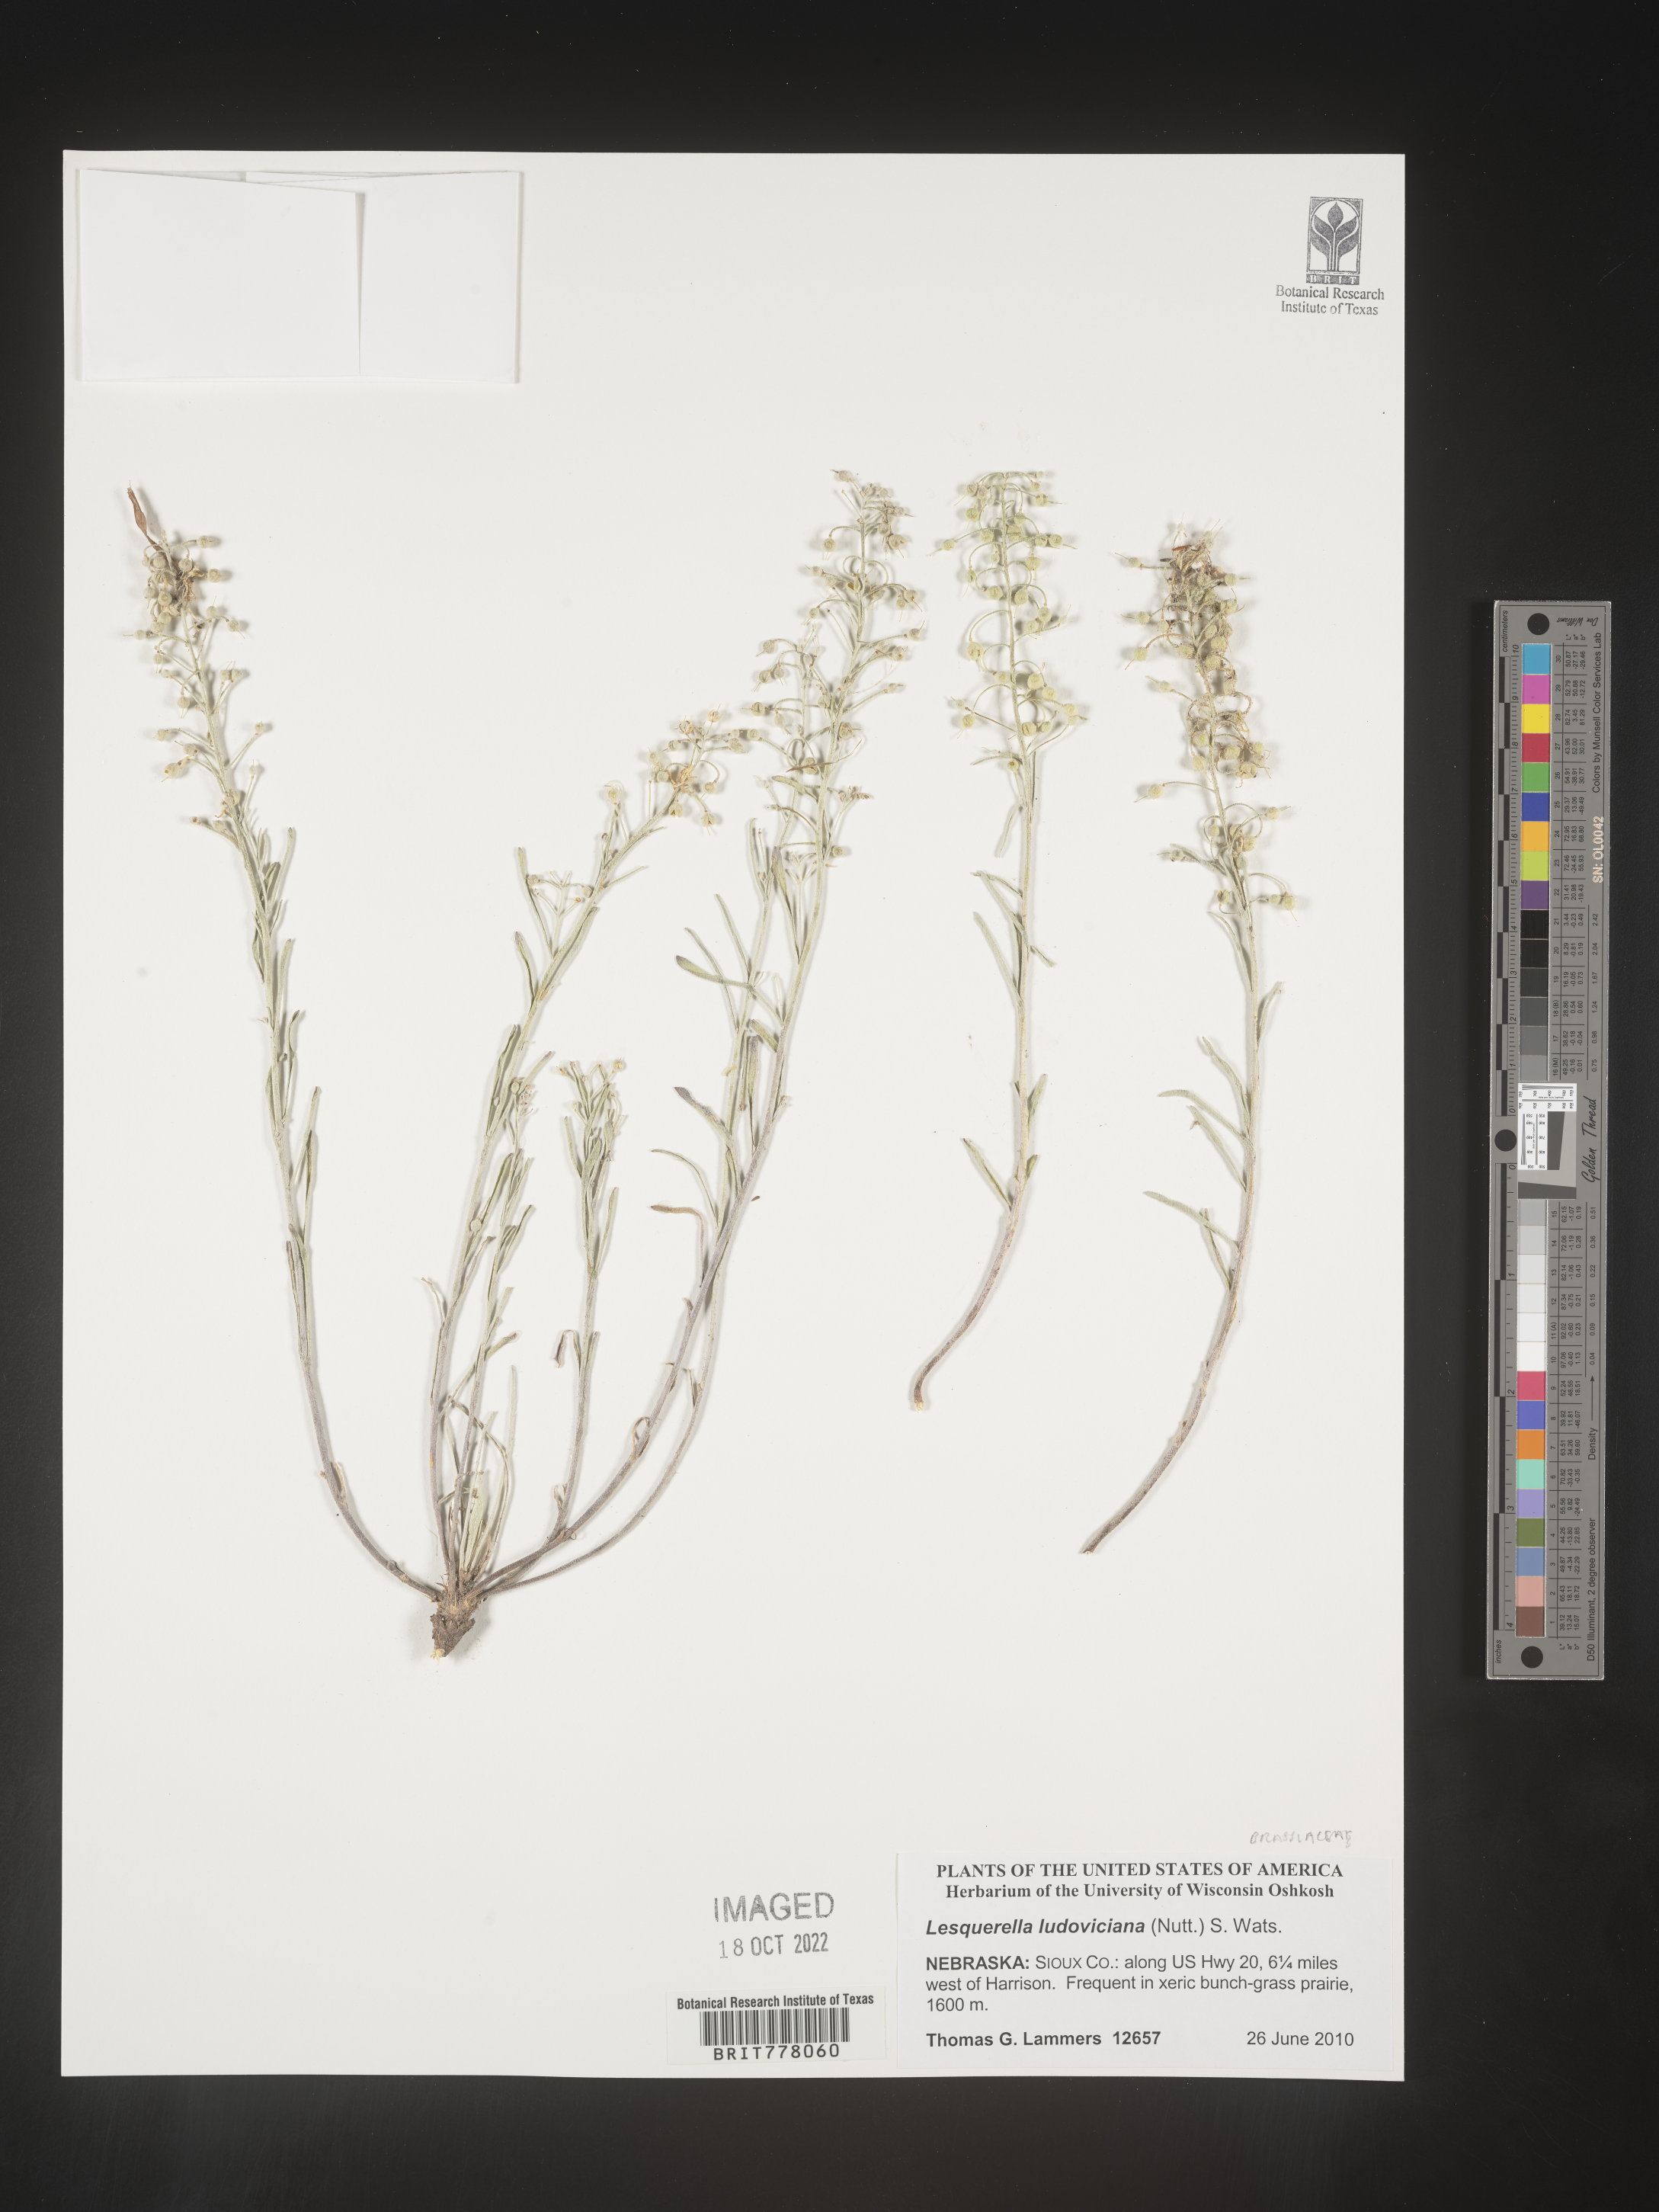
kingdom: Chromista
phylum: Cercozoa
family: Psammonobiotidae
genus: Lesquerella
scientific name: Lesquerella
